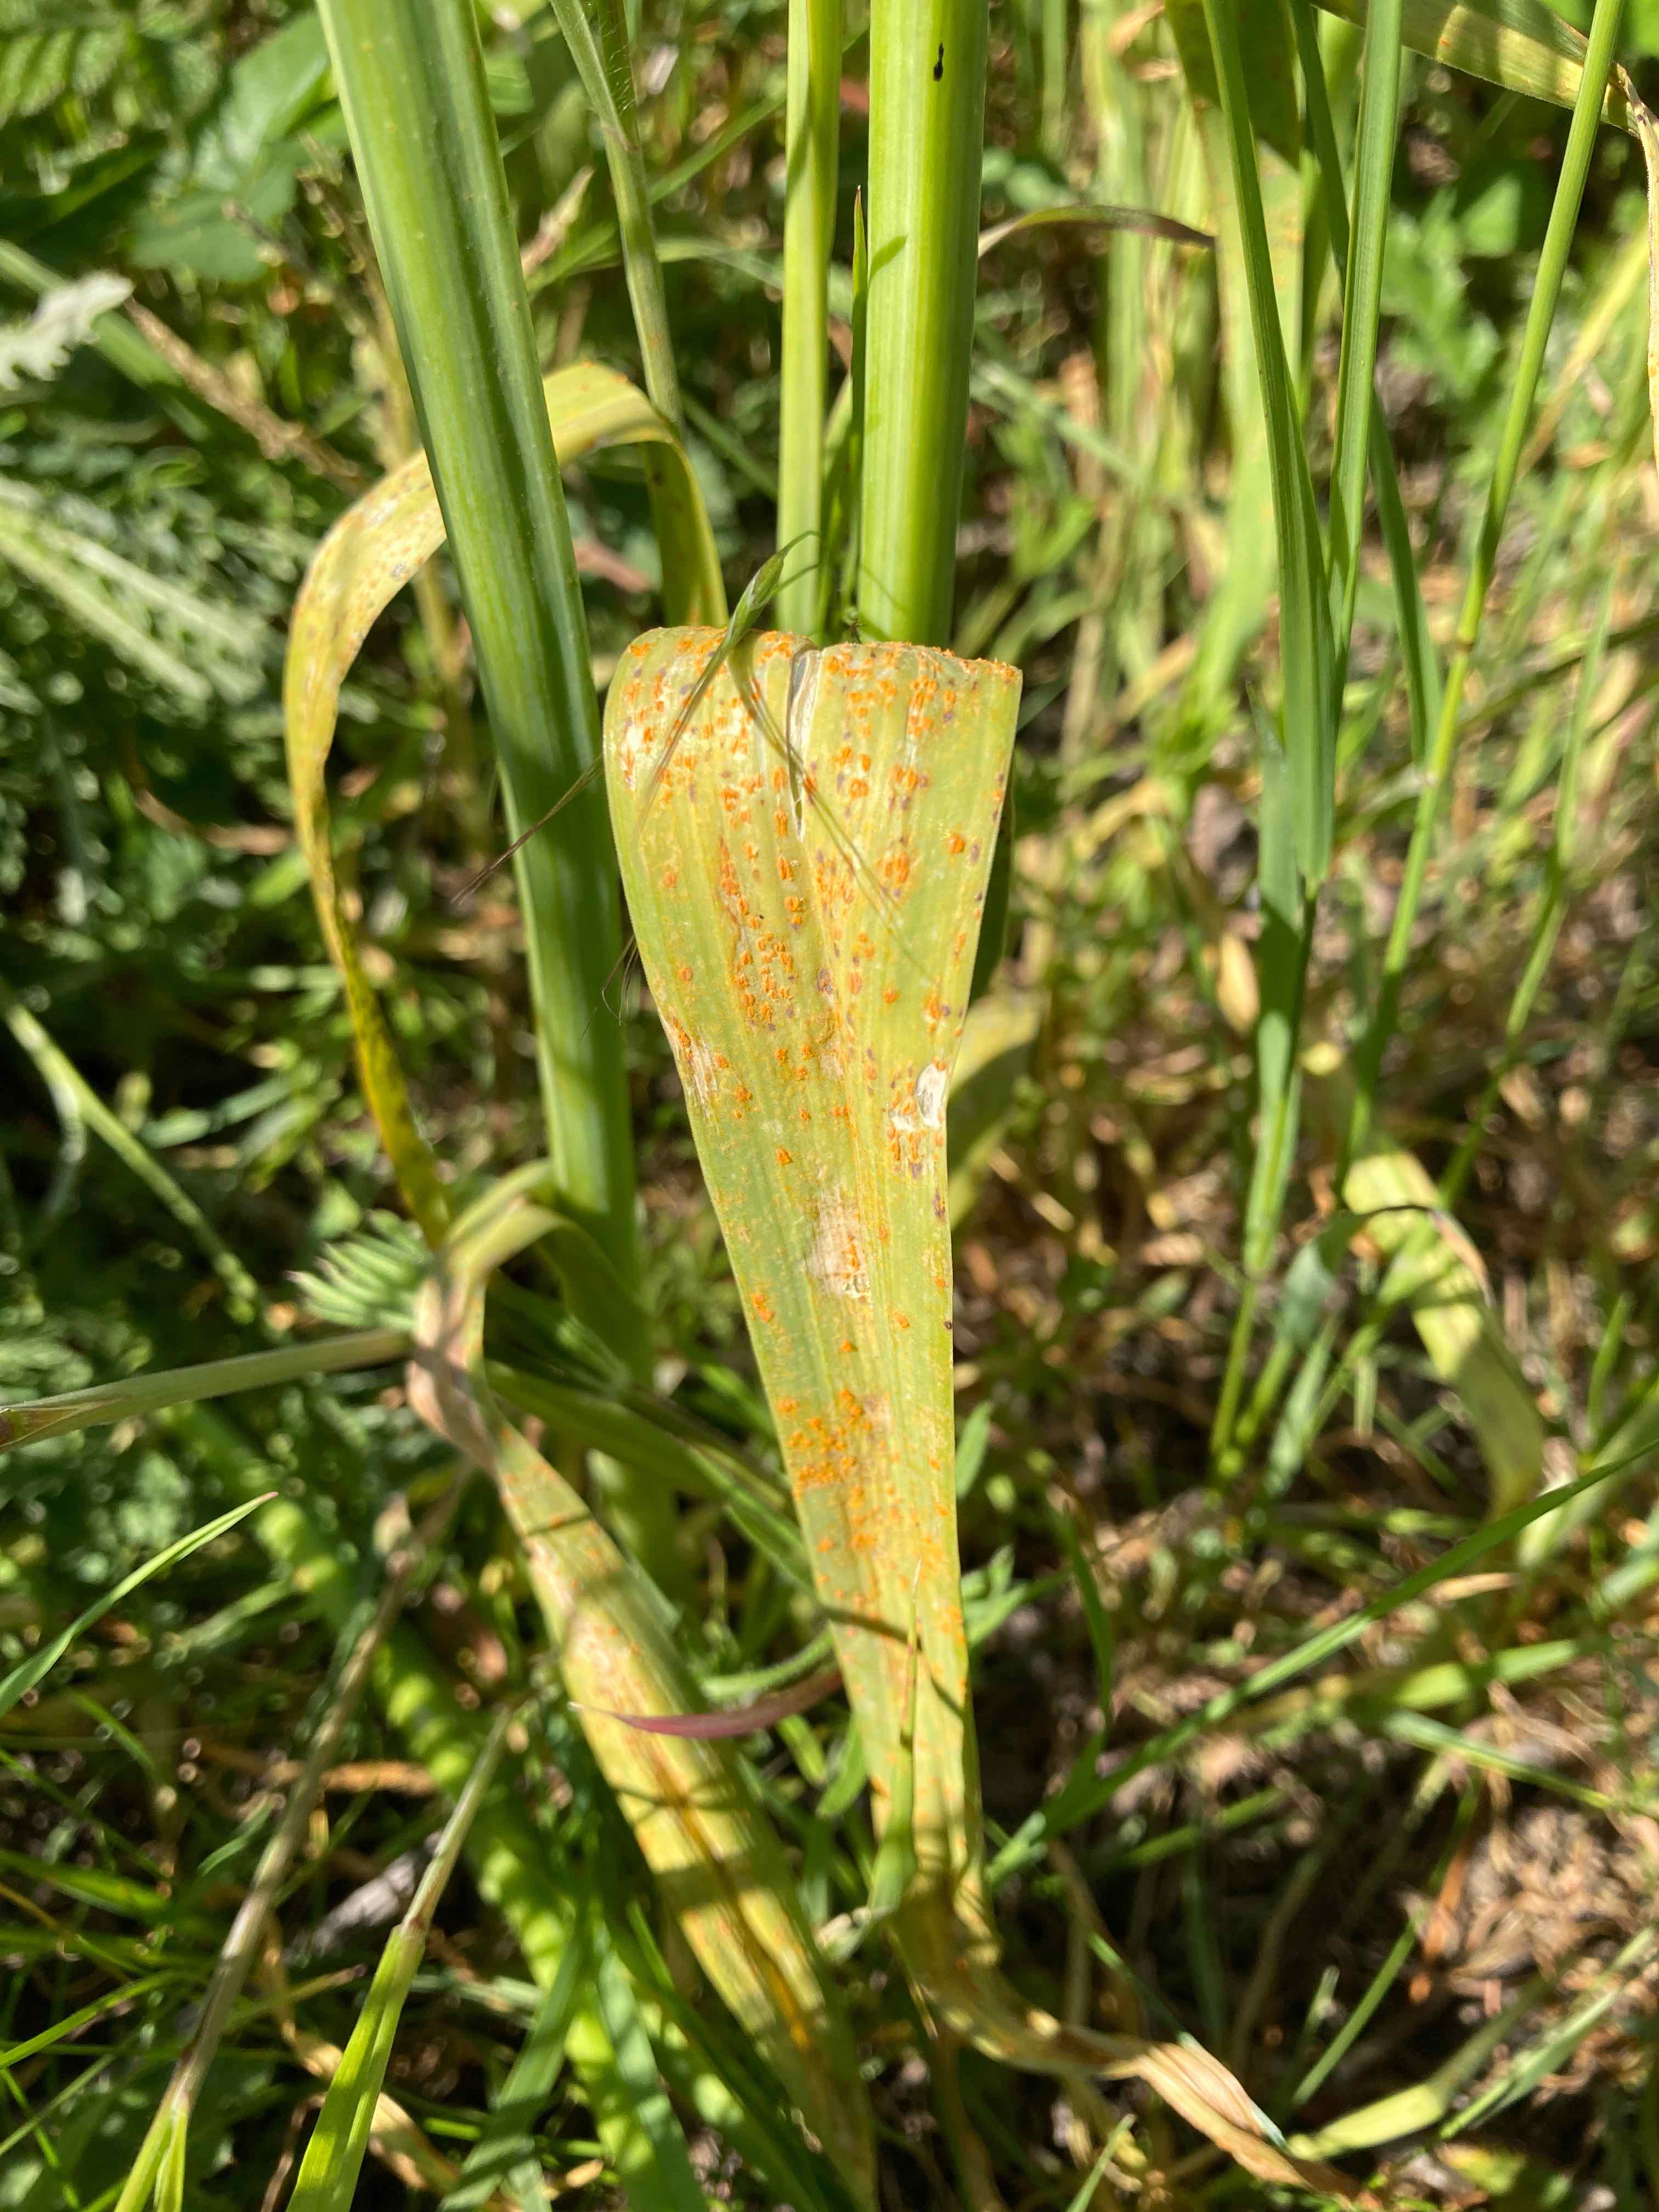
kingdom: Fungi
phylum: Basidiomycota
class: Pucciniomycetes
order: Pucciniales
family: Pucciniaceae
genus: Puccinia
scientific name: Puccinia porri
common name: Allium rust
